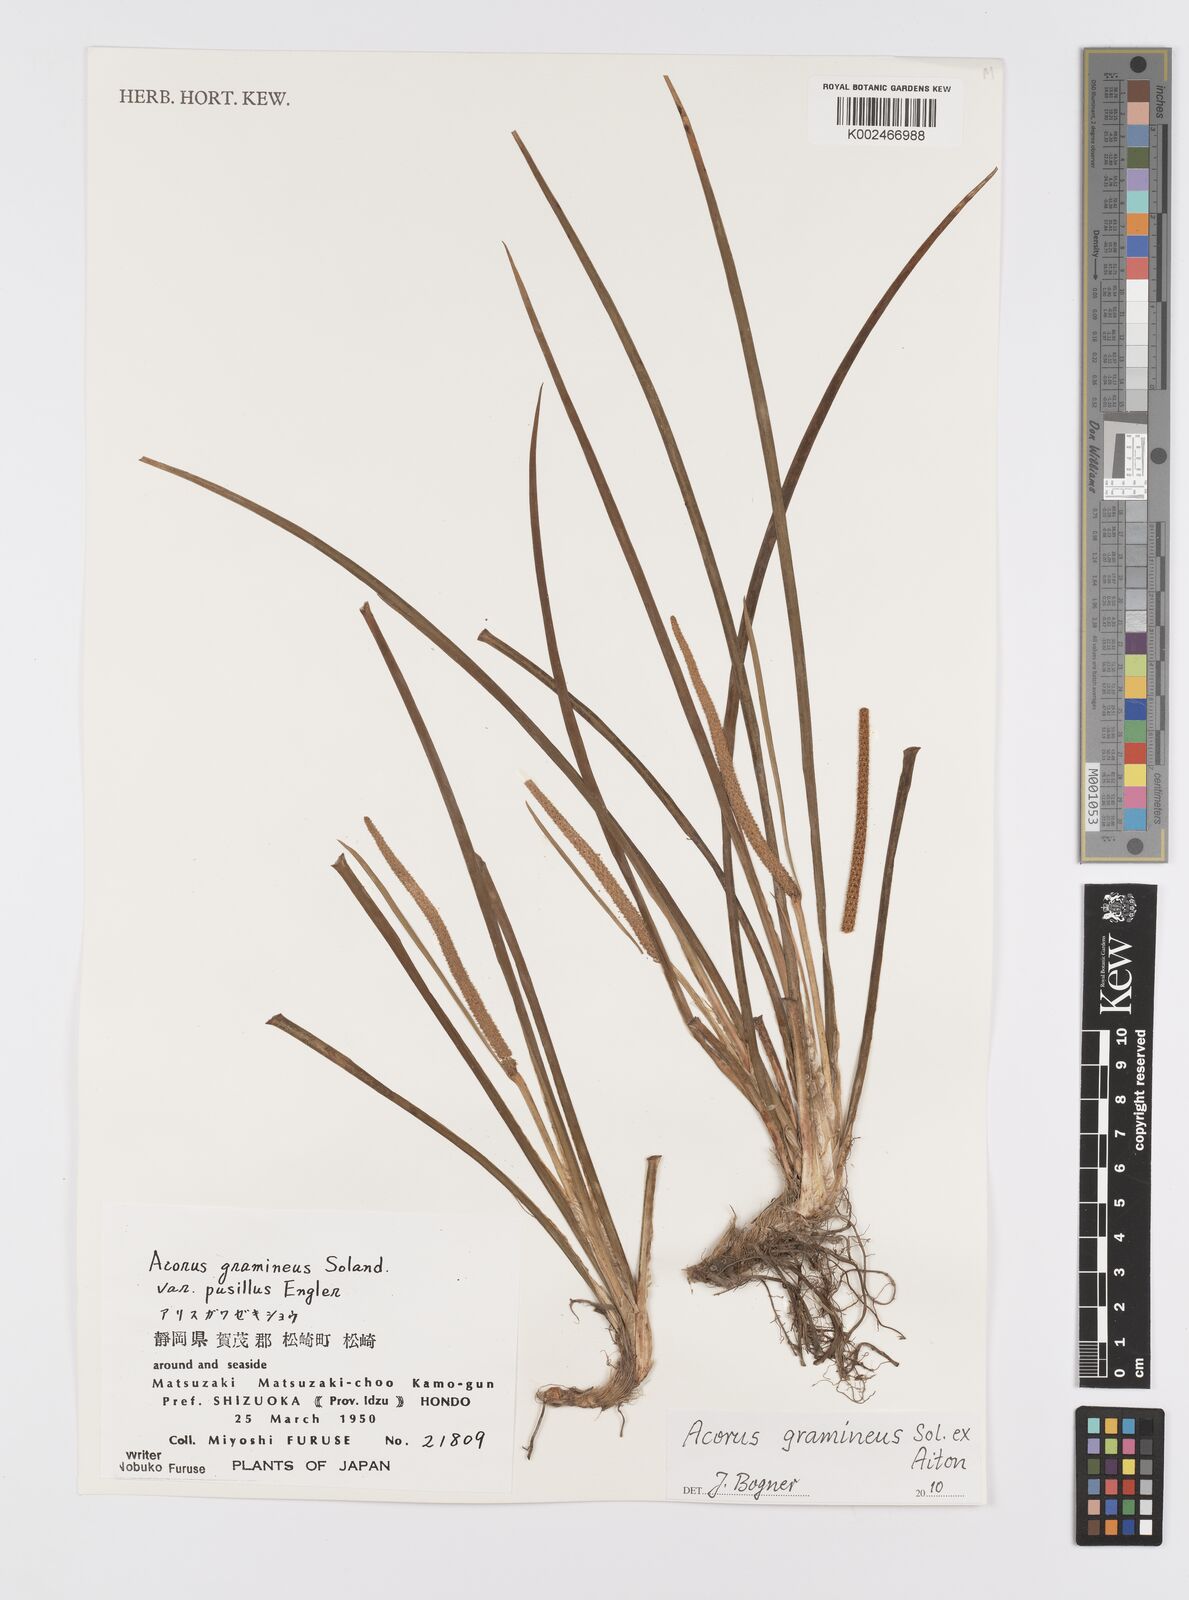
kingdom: Plantae
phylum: Tracheophyta
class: Liliopsida
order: Acorales
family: Acoraceae
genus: Acorus
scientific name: Acorus gramineus
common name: Slender sweet-flag
